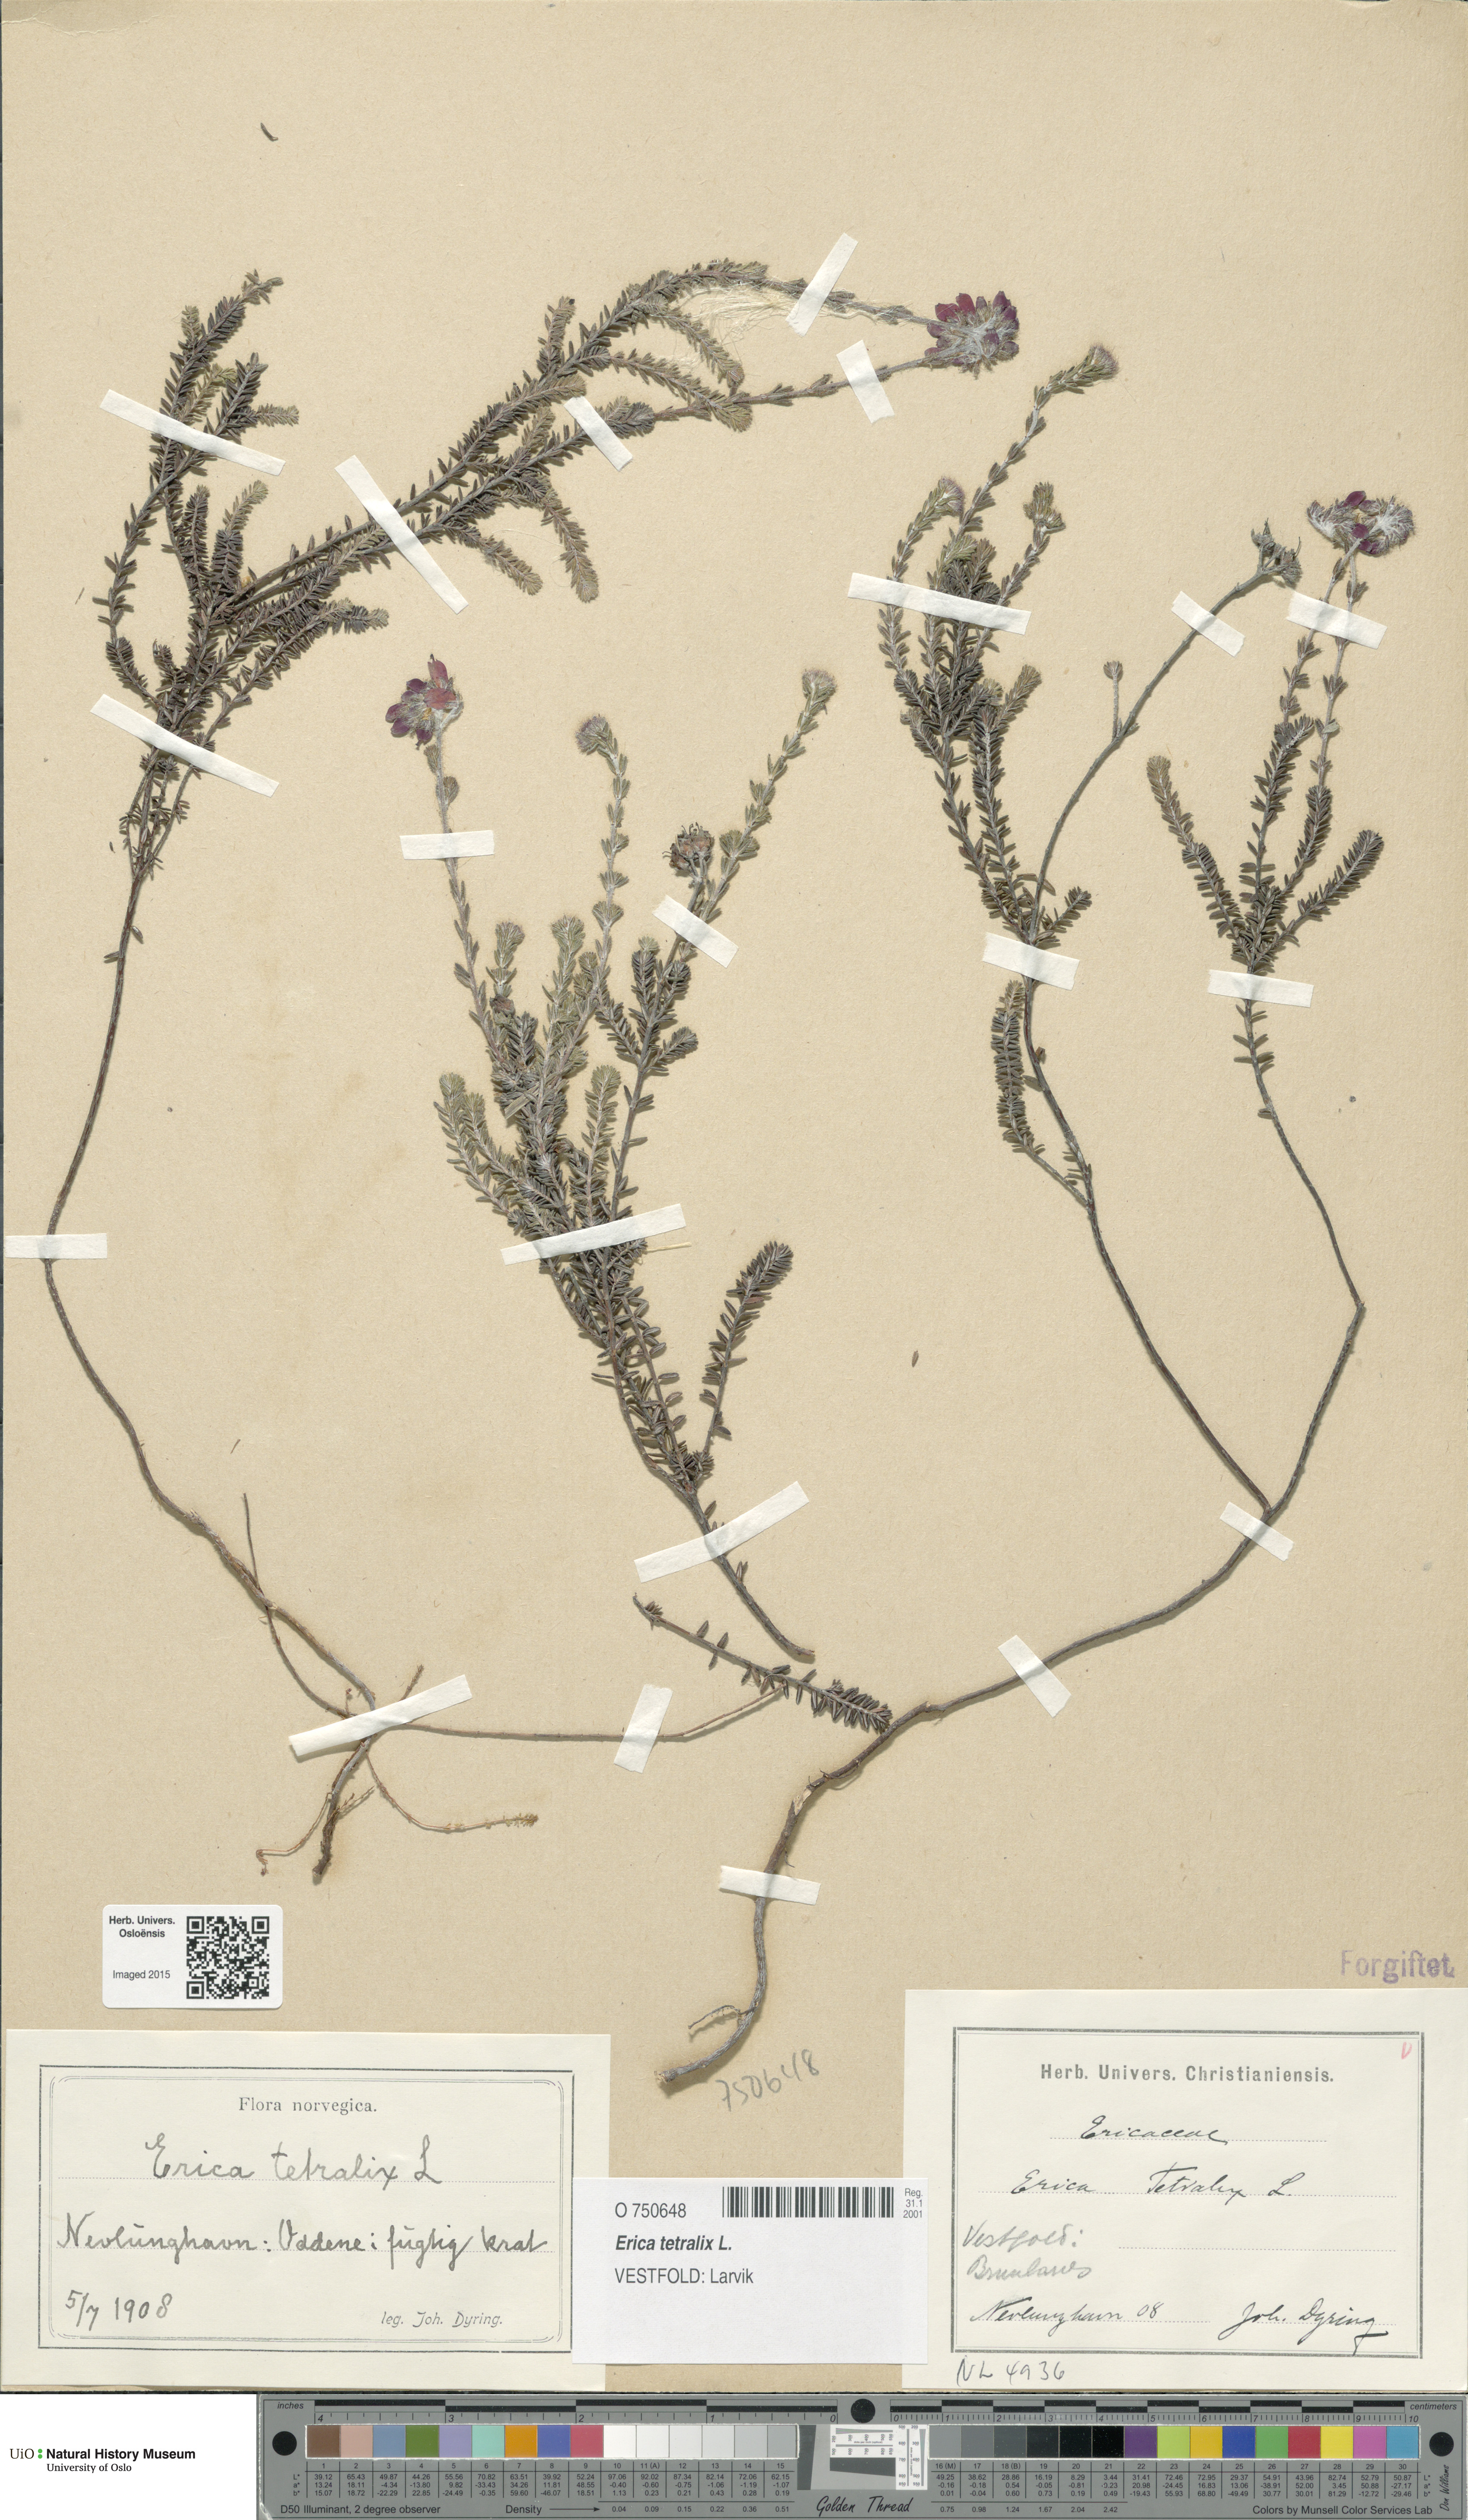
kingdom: Plantae
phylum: Tracheophyta
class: Magnoliopsida
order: Ericales
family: Ericaceae
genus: Erica
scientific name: Erica tetralix
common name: Cross-leaved heath
